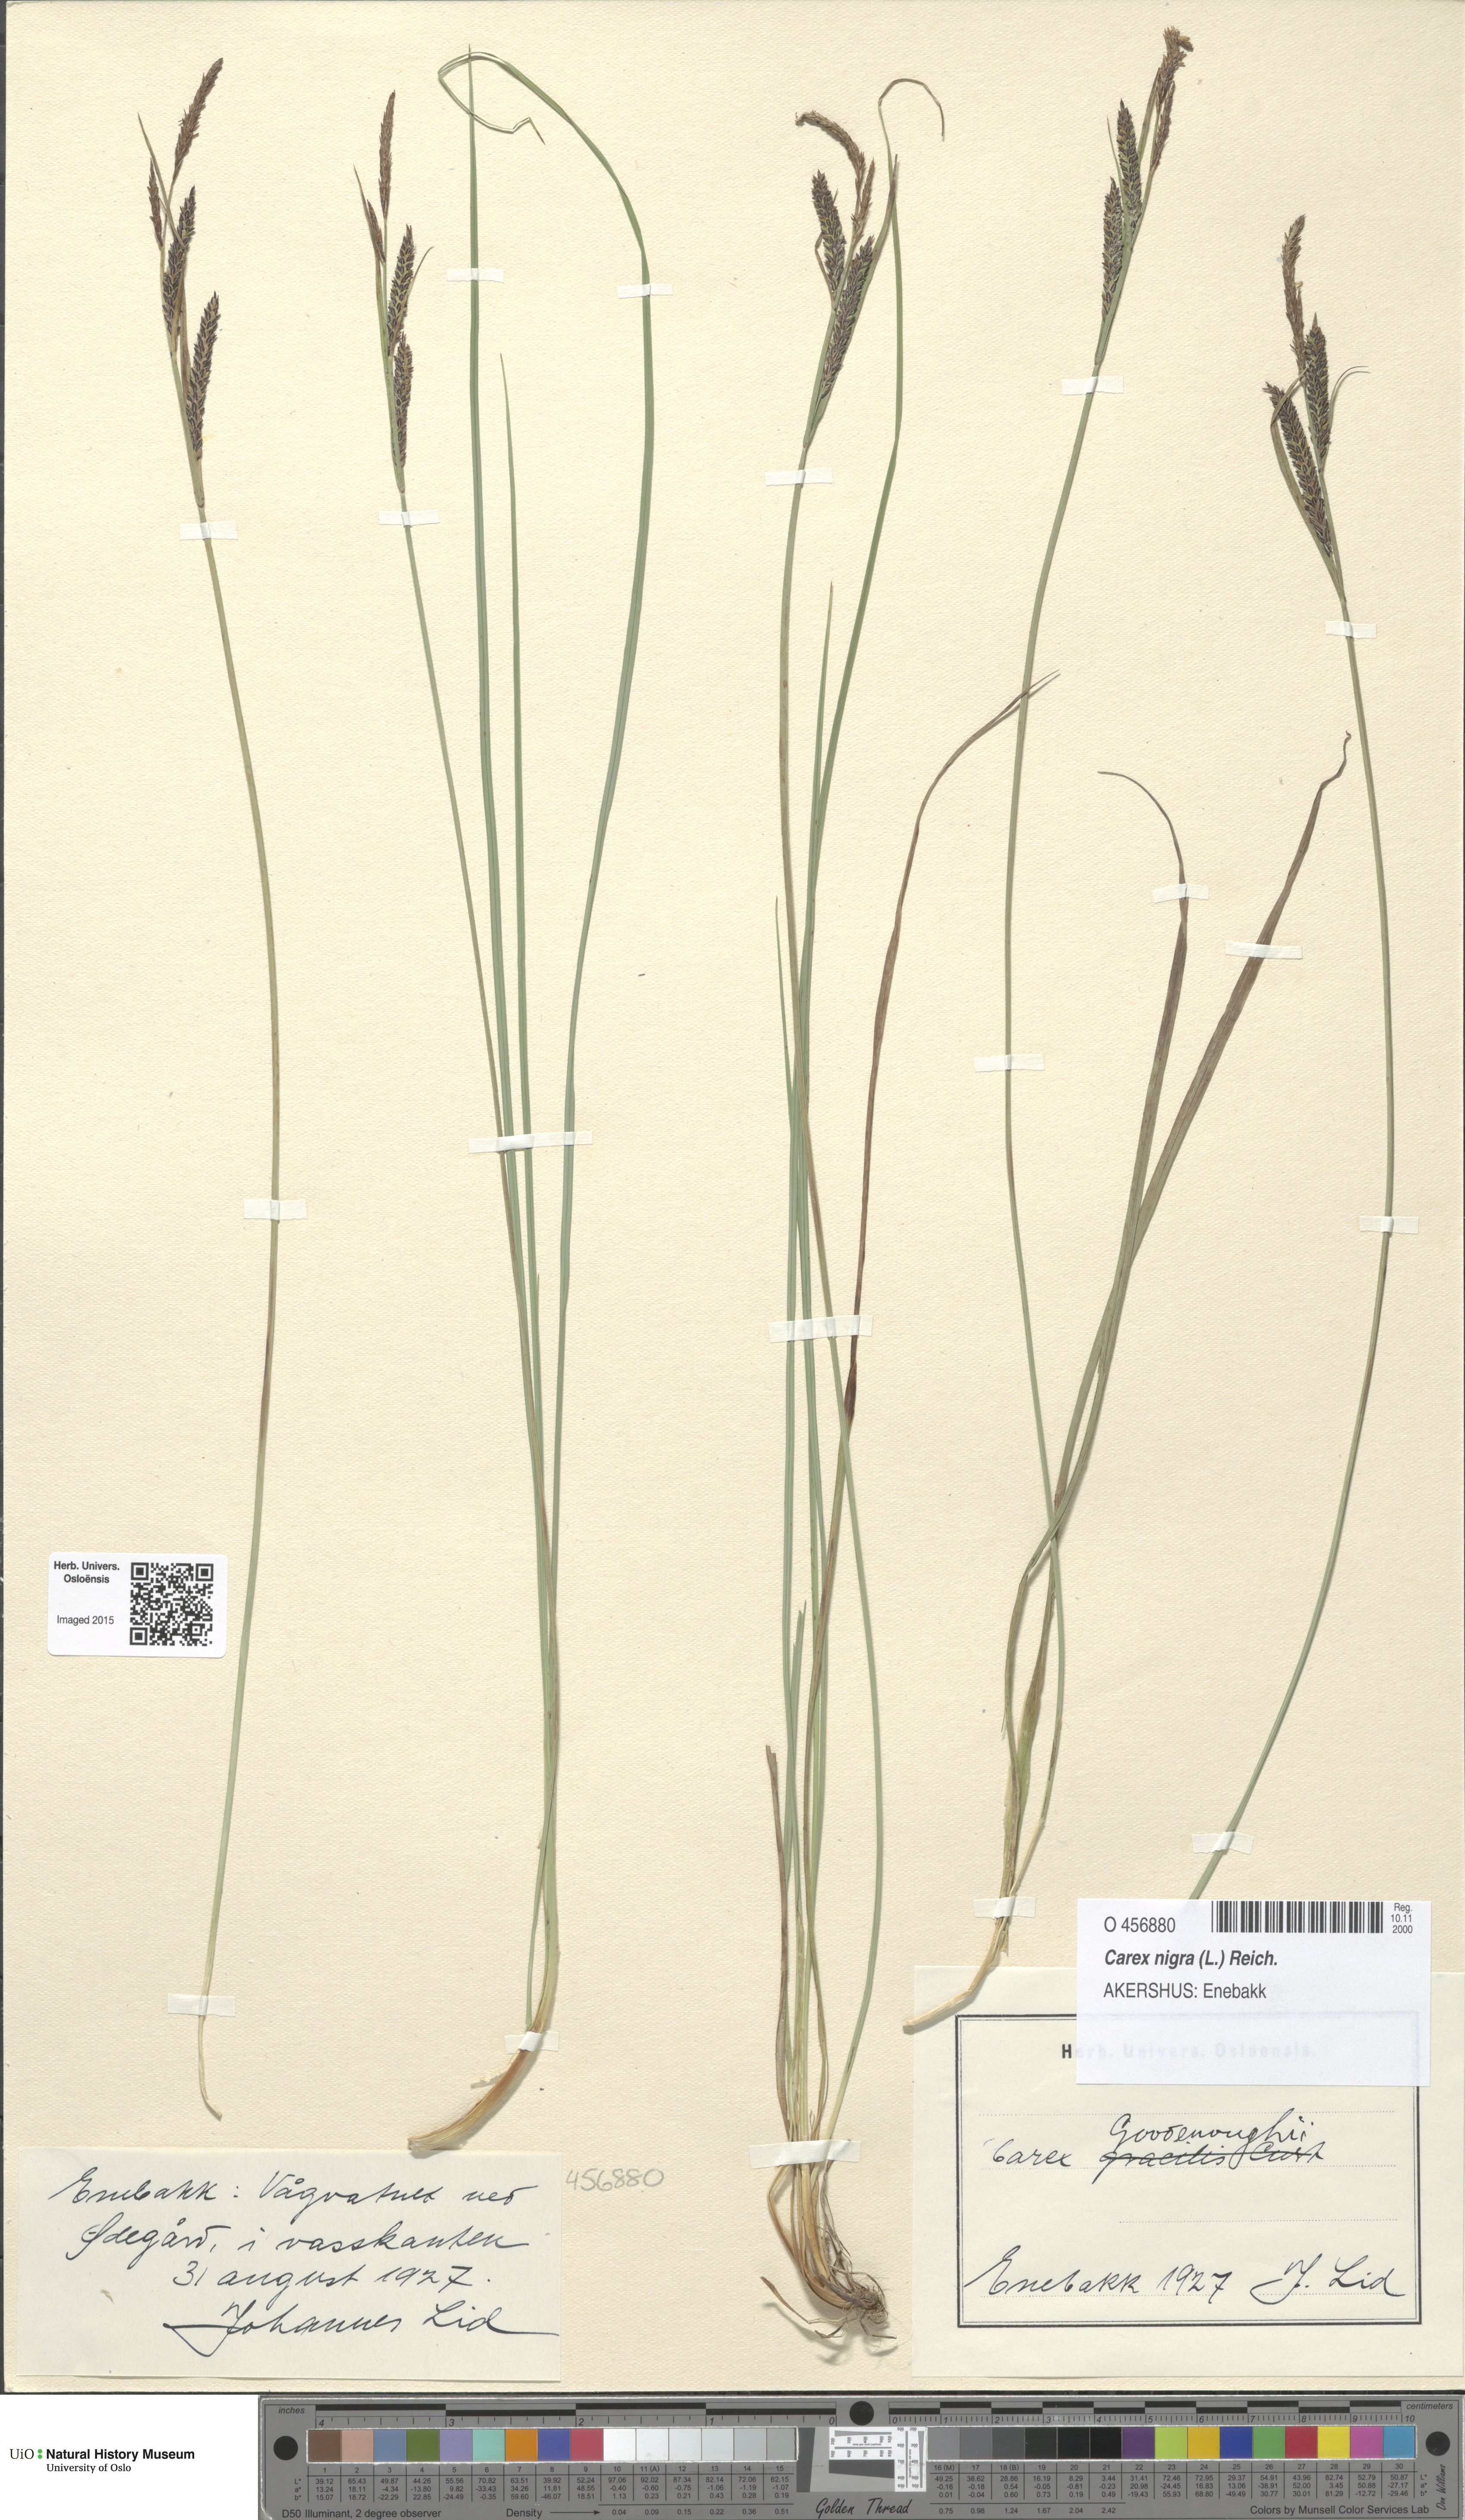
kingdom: Plantae
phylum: Tracheophyta
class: Liliopsida
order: Poales
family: Cyperaceae
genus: Carex
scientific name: Carex nigra
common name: Common sedge
